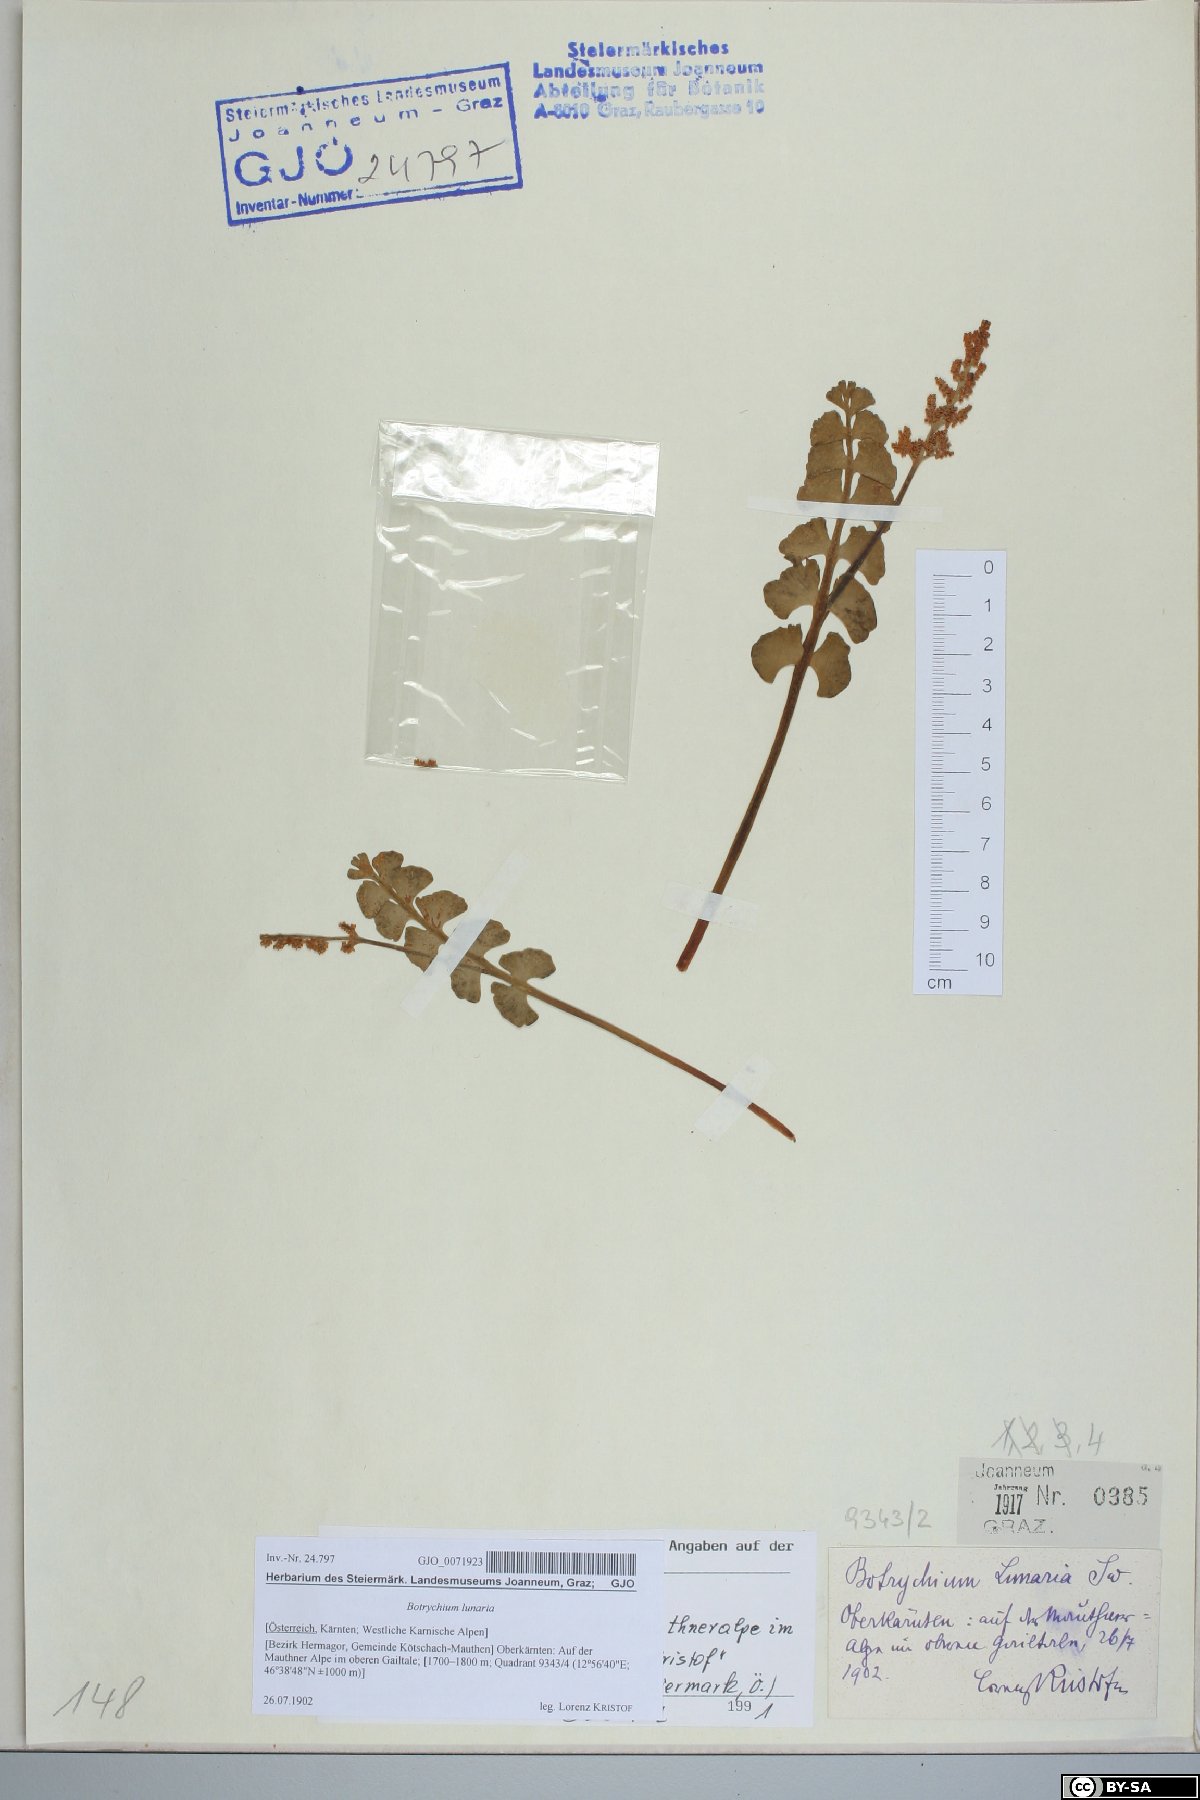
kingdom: Plantae
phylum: Tracheophyta
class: Polypodiopsida
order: Ophioglossales
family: Ophioglossaceae
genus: Botrychium
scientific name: Botrychium lunaria
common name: Moonwort
